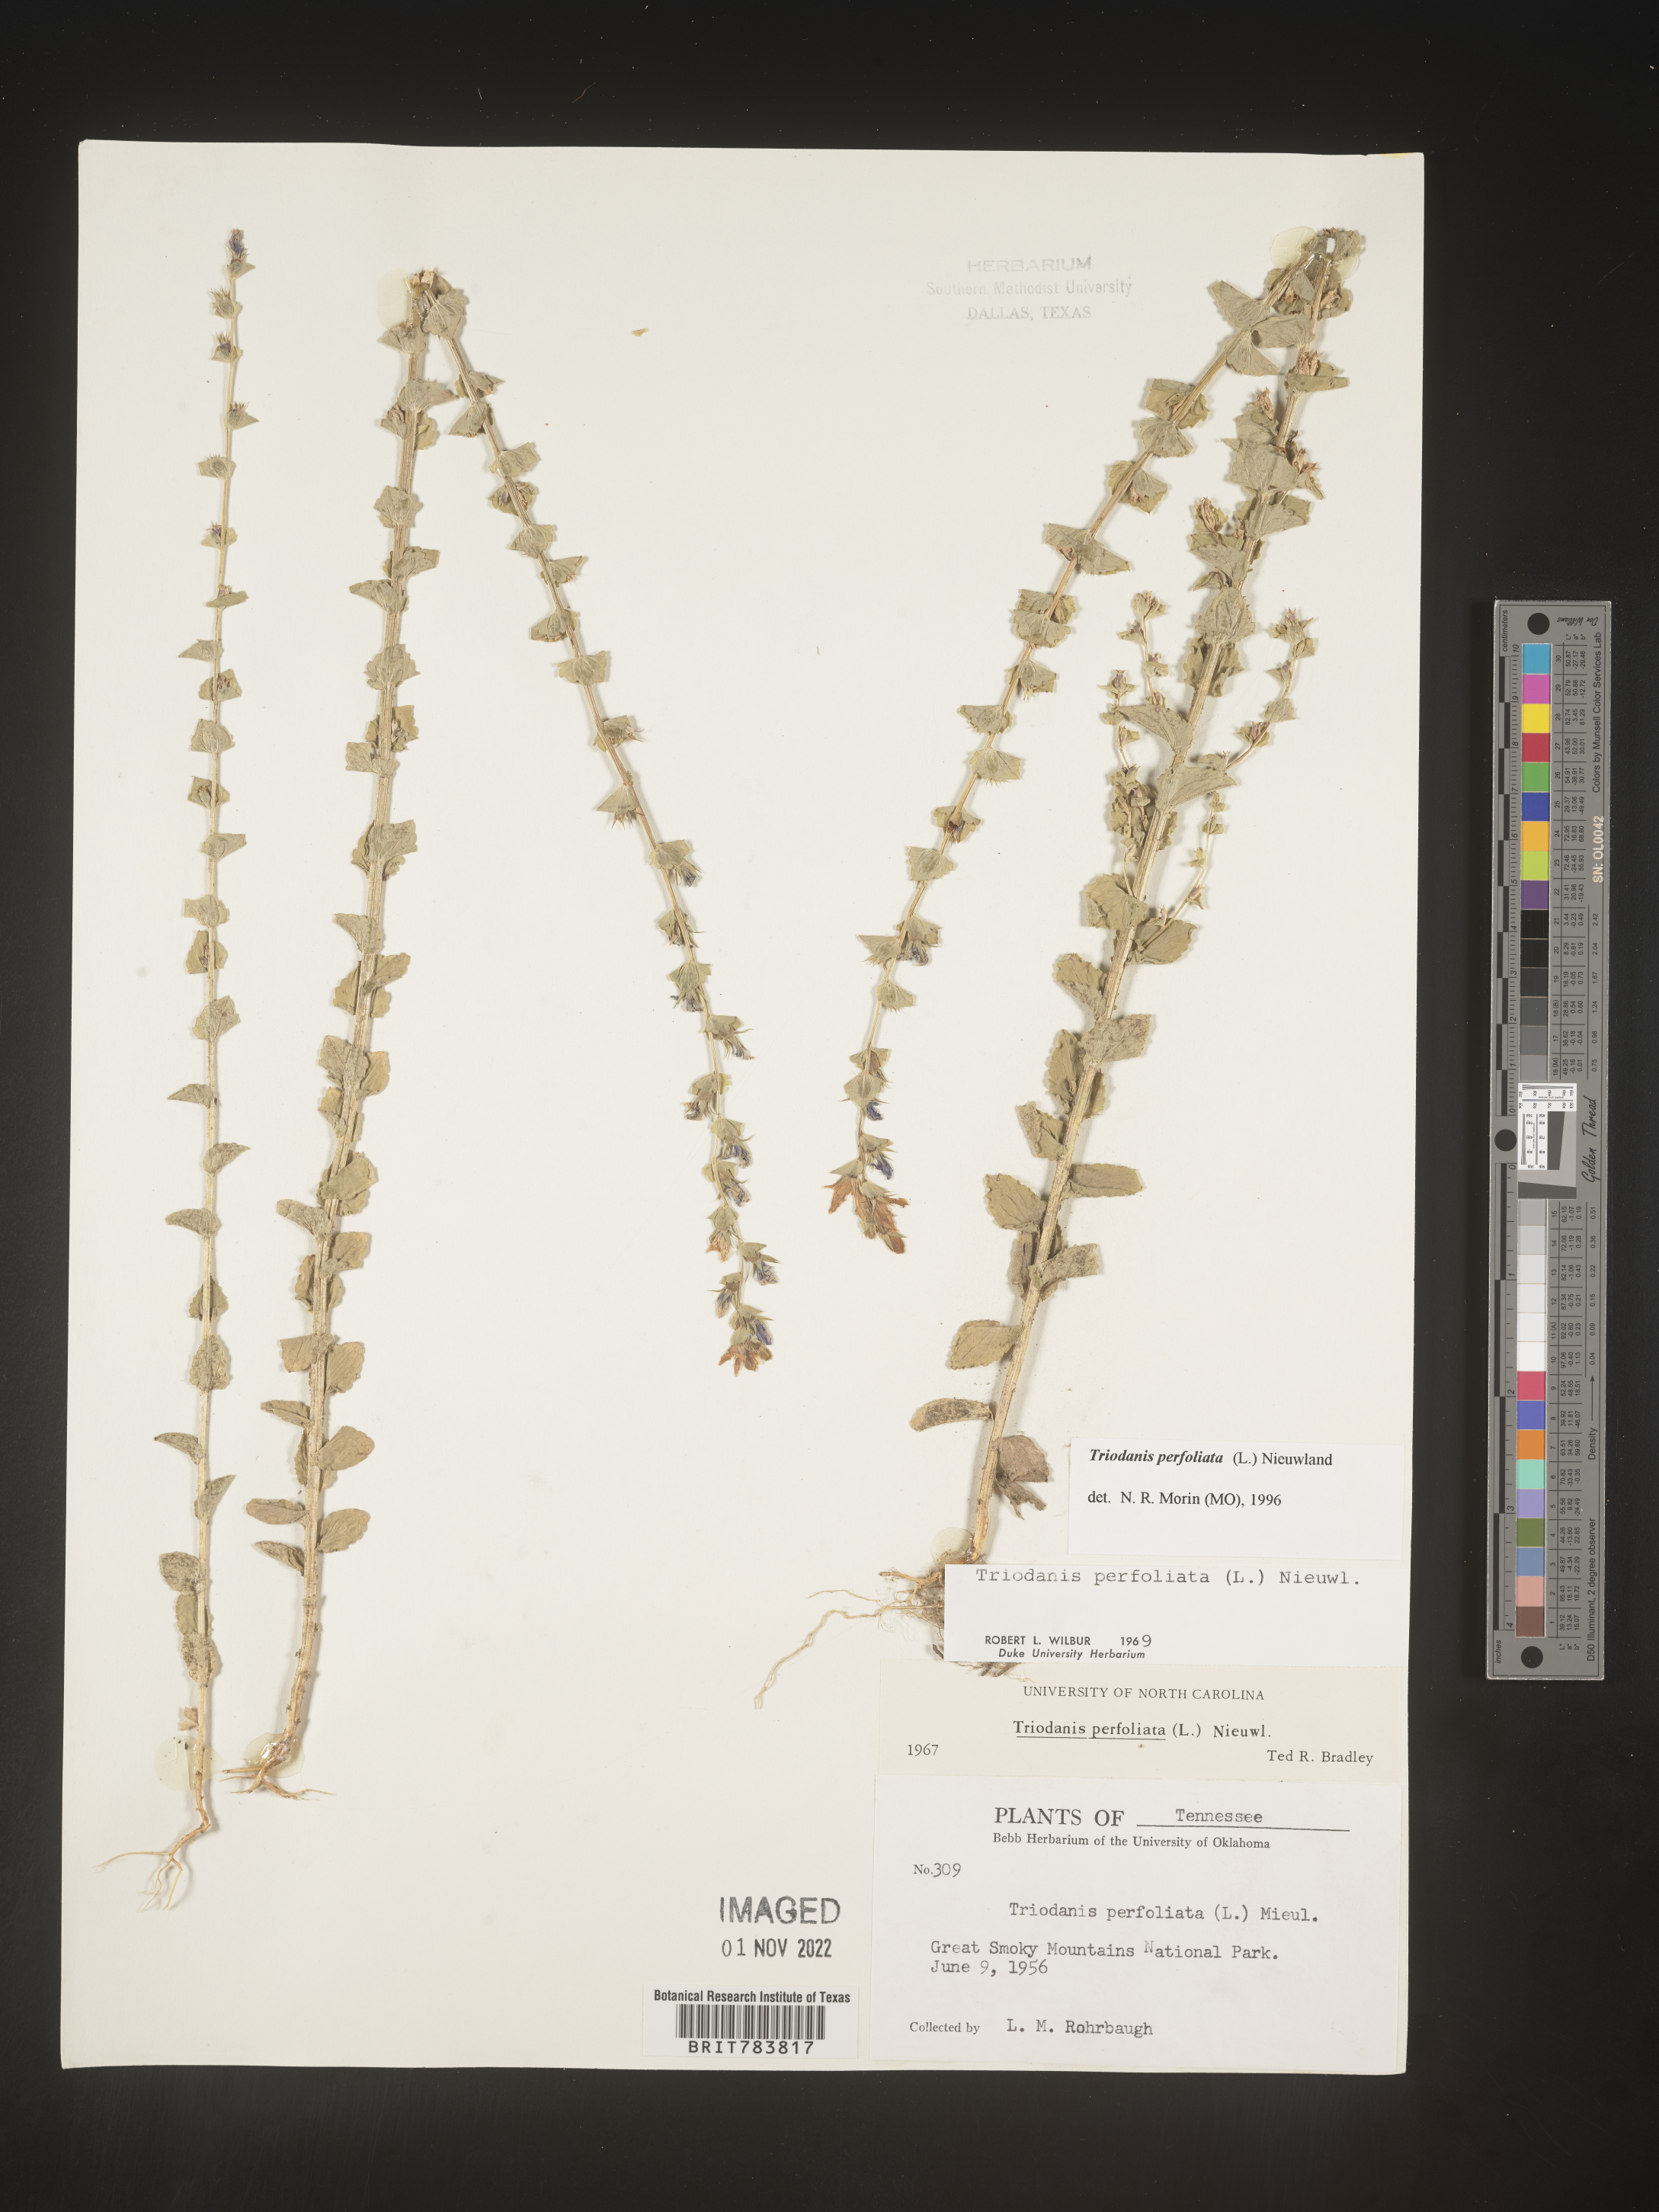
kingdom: Plantae
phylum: Tracheophyta
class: Magnoliopsida
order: Asterales
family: Campanulaceae
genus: Triodanis
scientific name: Triodanis perfoliata
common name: Clasping venus' looking-glass
